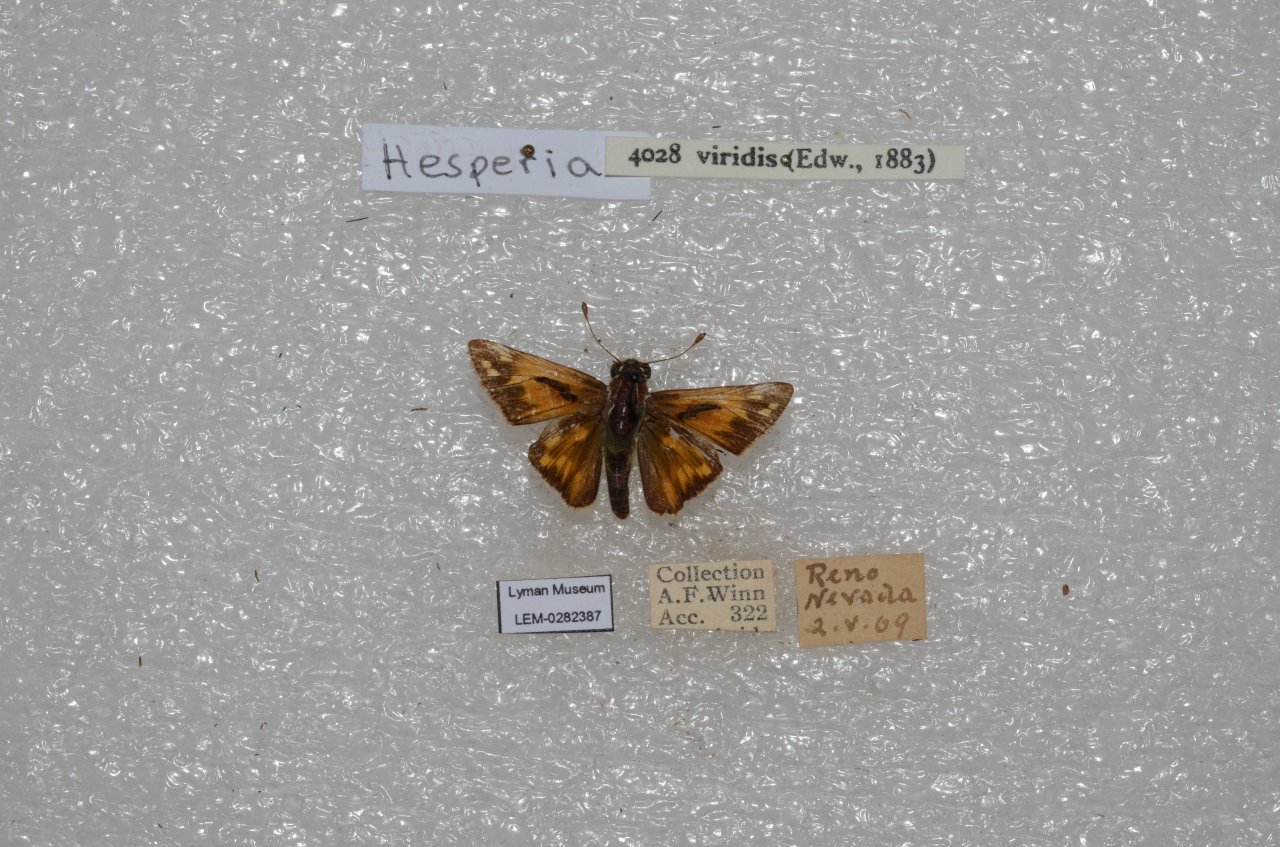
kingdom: Animalia
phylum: Arthropoda
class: Insecta
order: Lepidoptera
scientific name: Lepidoptera
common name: Butterflies
